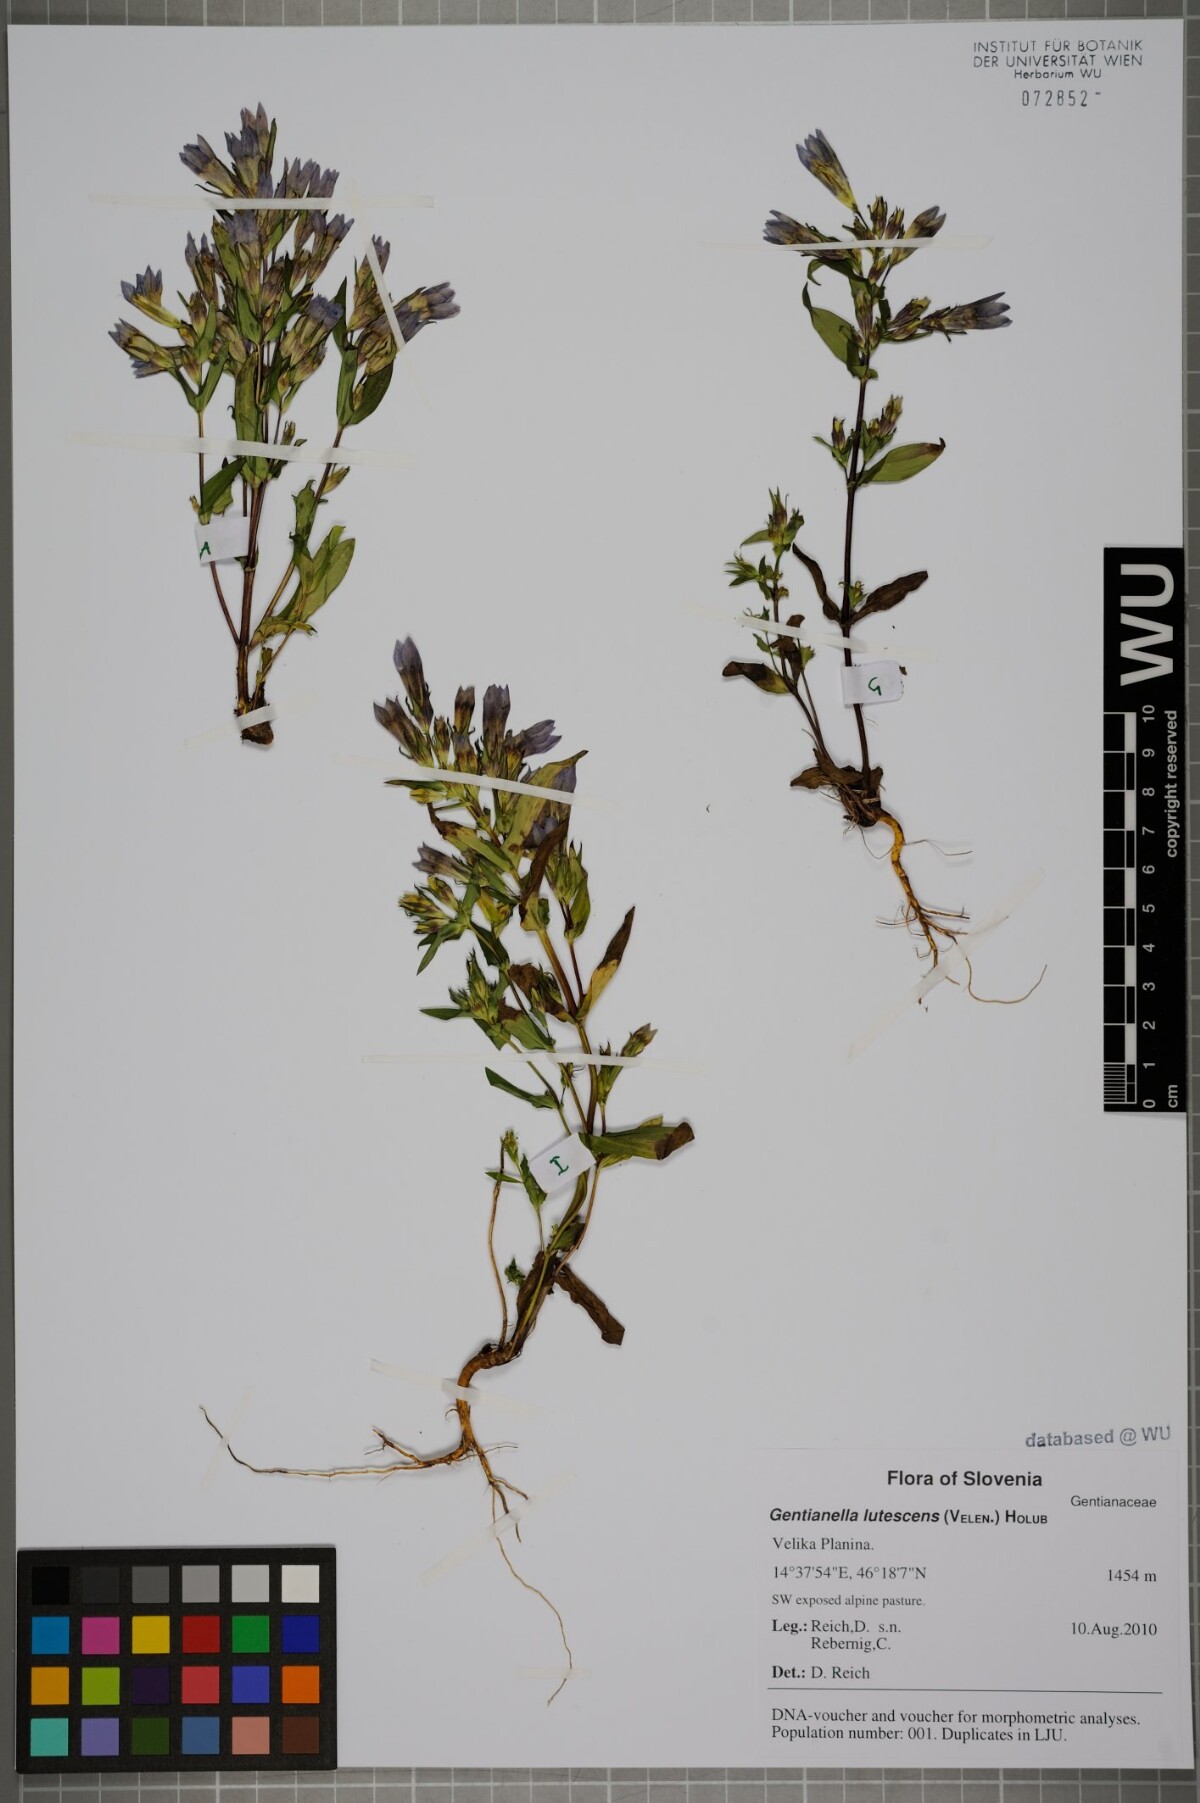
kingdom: Plantae
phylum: Tracheophyta
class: Magnoliopsida
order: Gentianales
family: Gentianaceae
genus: Gentianella
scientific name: Gentianella praecox
